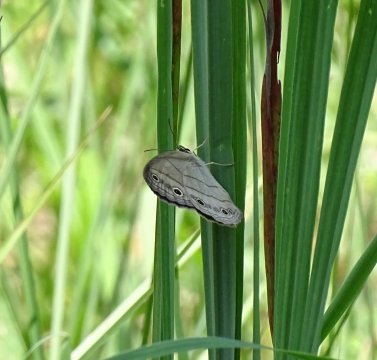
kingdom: Animalia
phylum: Arthropoda
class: Insecta
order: Lepidoptera
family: Nymphalidae
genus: Euptychia
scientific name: Euptychia cymela
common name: Little Wood Satyr
